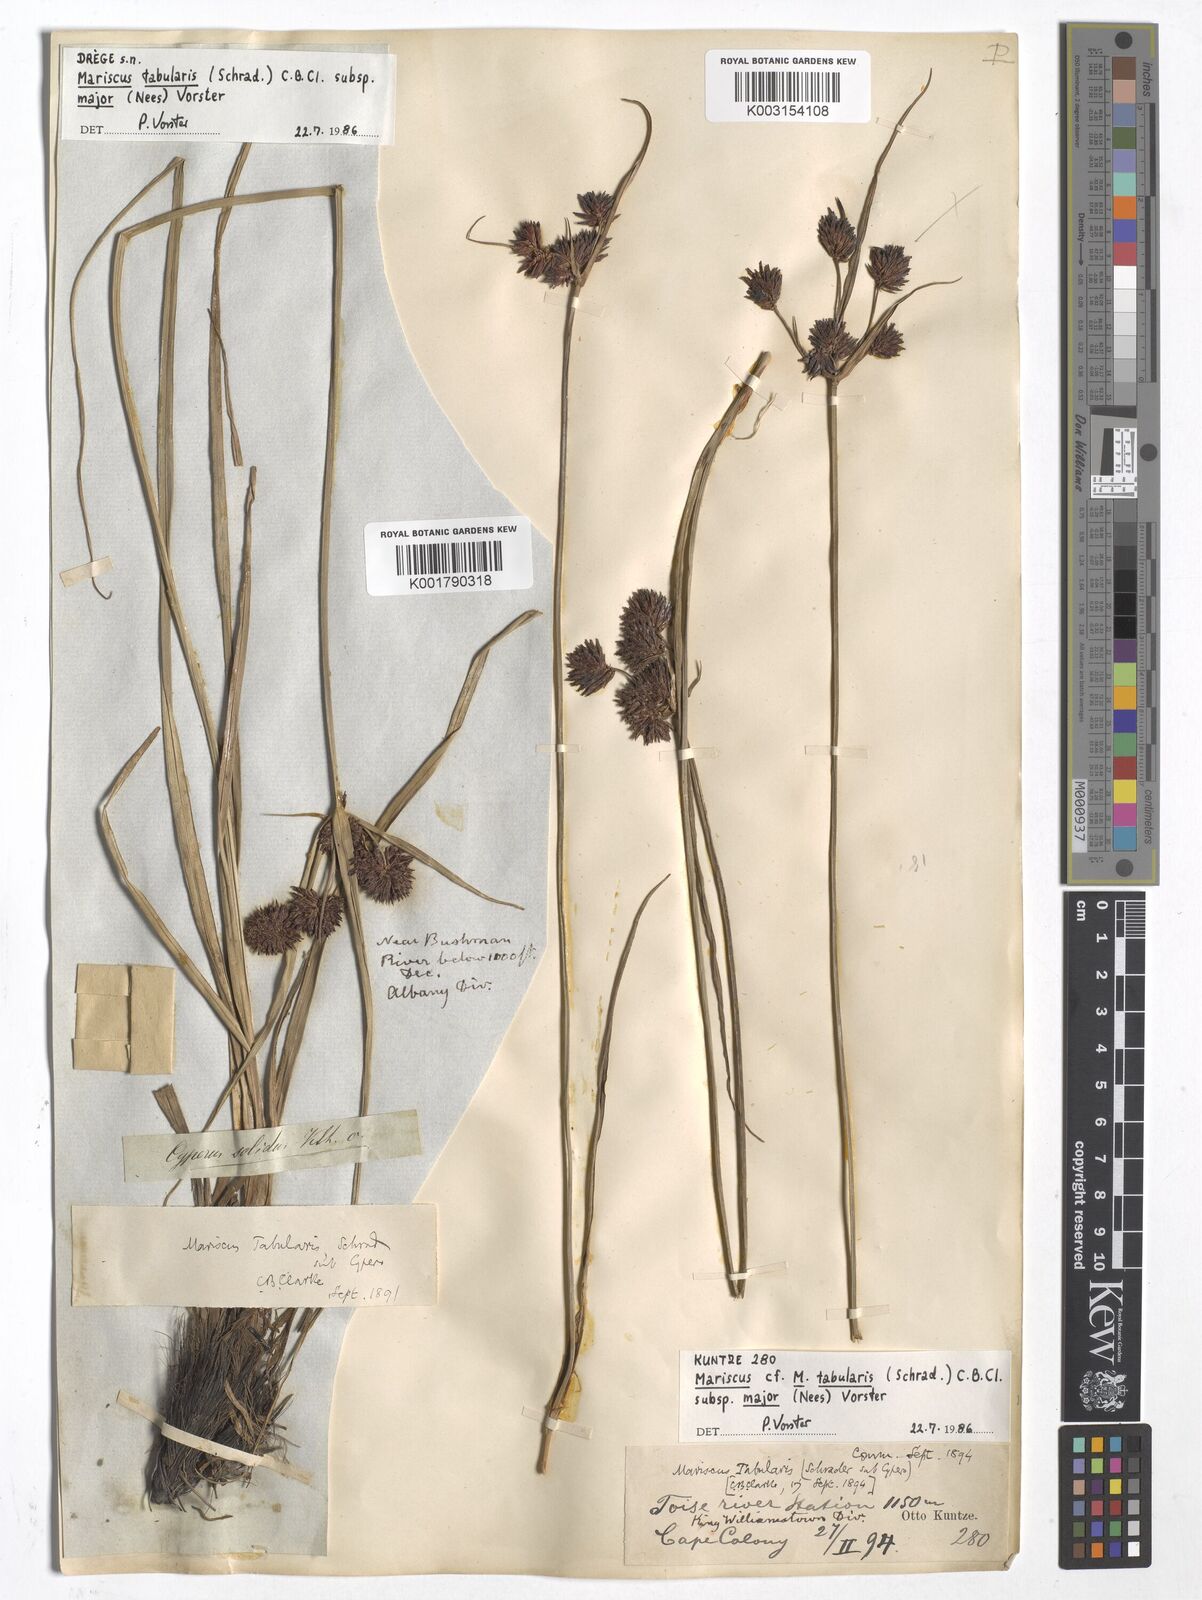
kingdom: Plantae
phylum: Tracheophyta
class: Liliopsida
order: Poales
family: Cyperaceae
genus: Cyperus
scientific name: Cyperus tabularis
